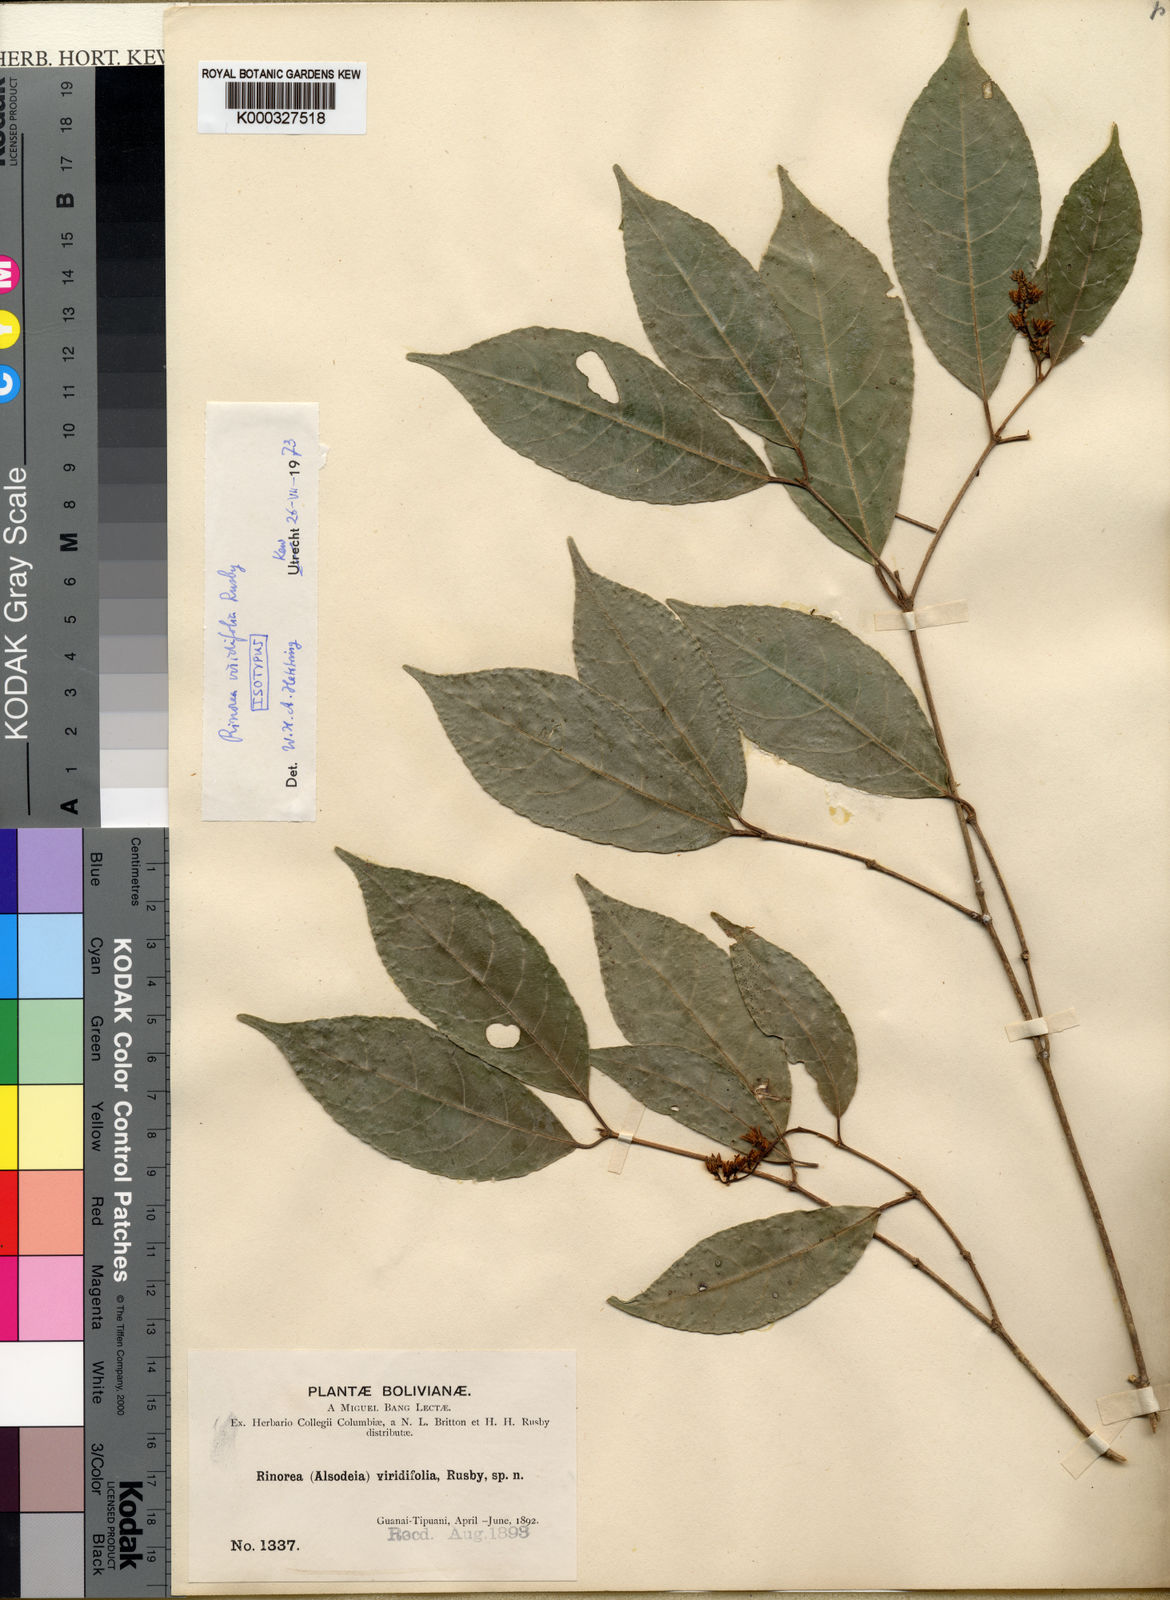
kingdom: Plantae
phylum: Tracheophyta
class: Magnoliopsida
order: Malpighiales
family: Violaceae
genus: Rinorea
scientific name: Rinorea viridifolia
